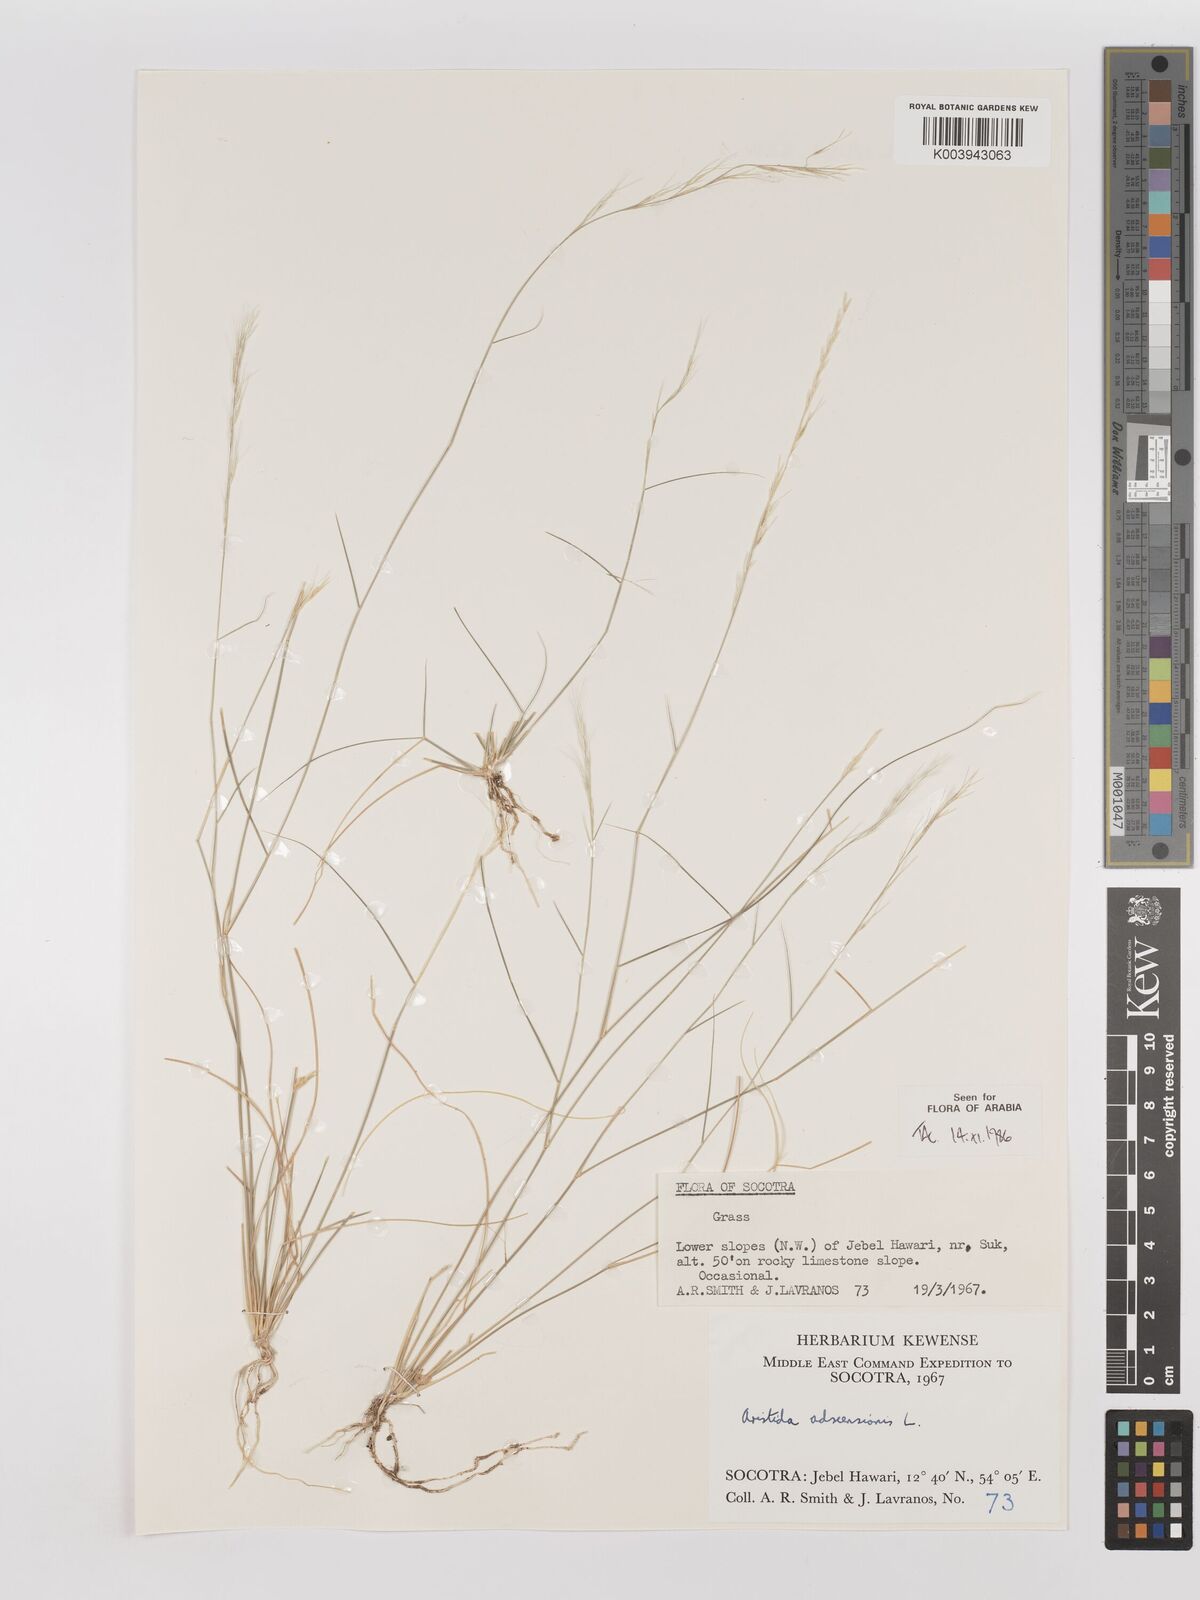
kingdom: Plantae
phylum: Tracheophyta
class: Liliopsida
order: Poales
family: Poaceae
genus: Aristida
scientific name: Aristida adscensionis
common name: Sixweeks threeawn
